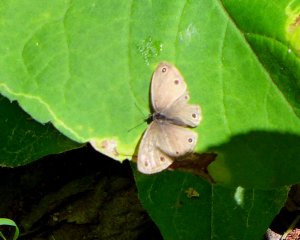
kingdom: Animalia
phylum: Arthropoda
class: Insecta
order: Lepidoptera
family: Nymphalidae
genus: Euptychia
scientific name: Euptychia cymela
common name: Little Wood Satyr
